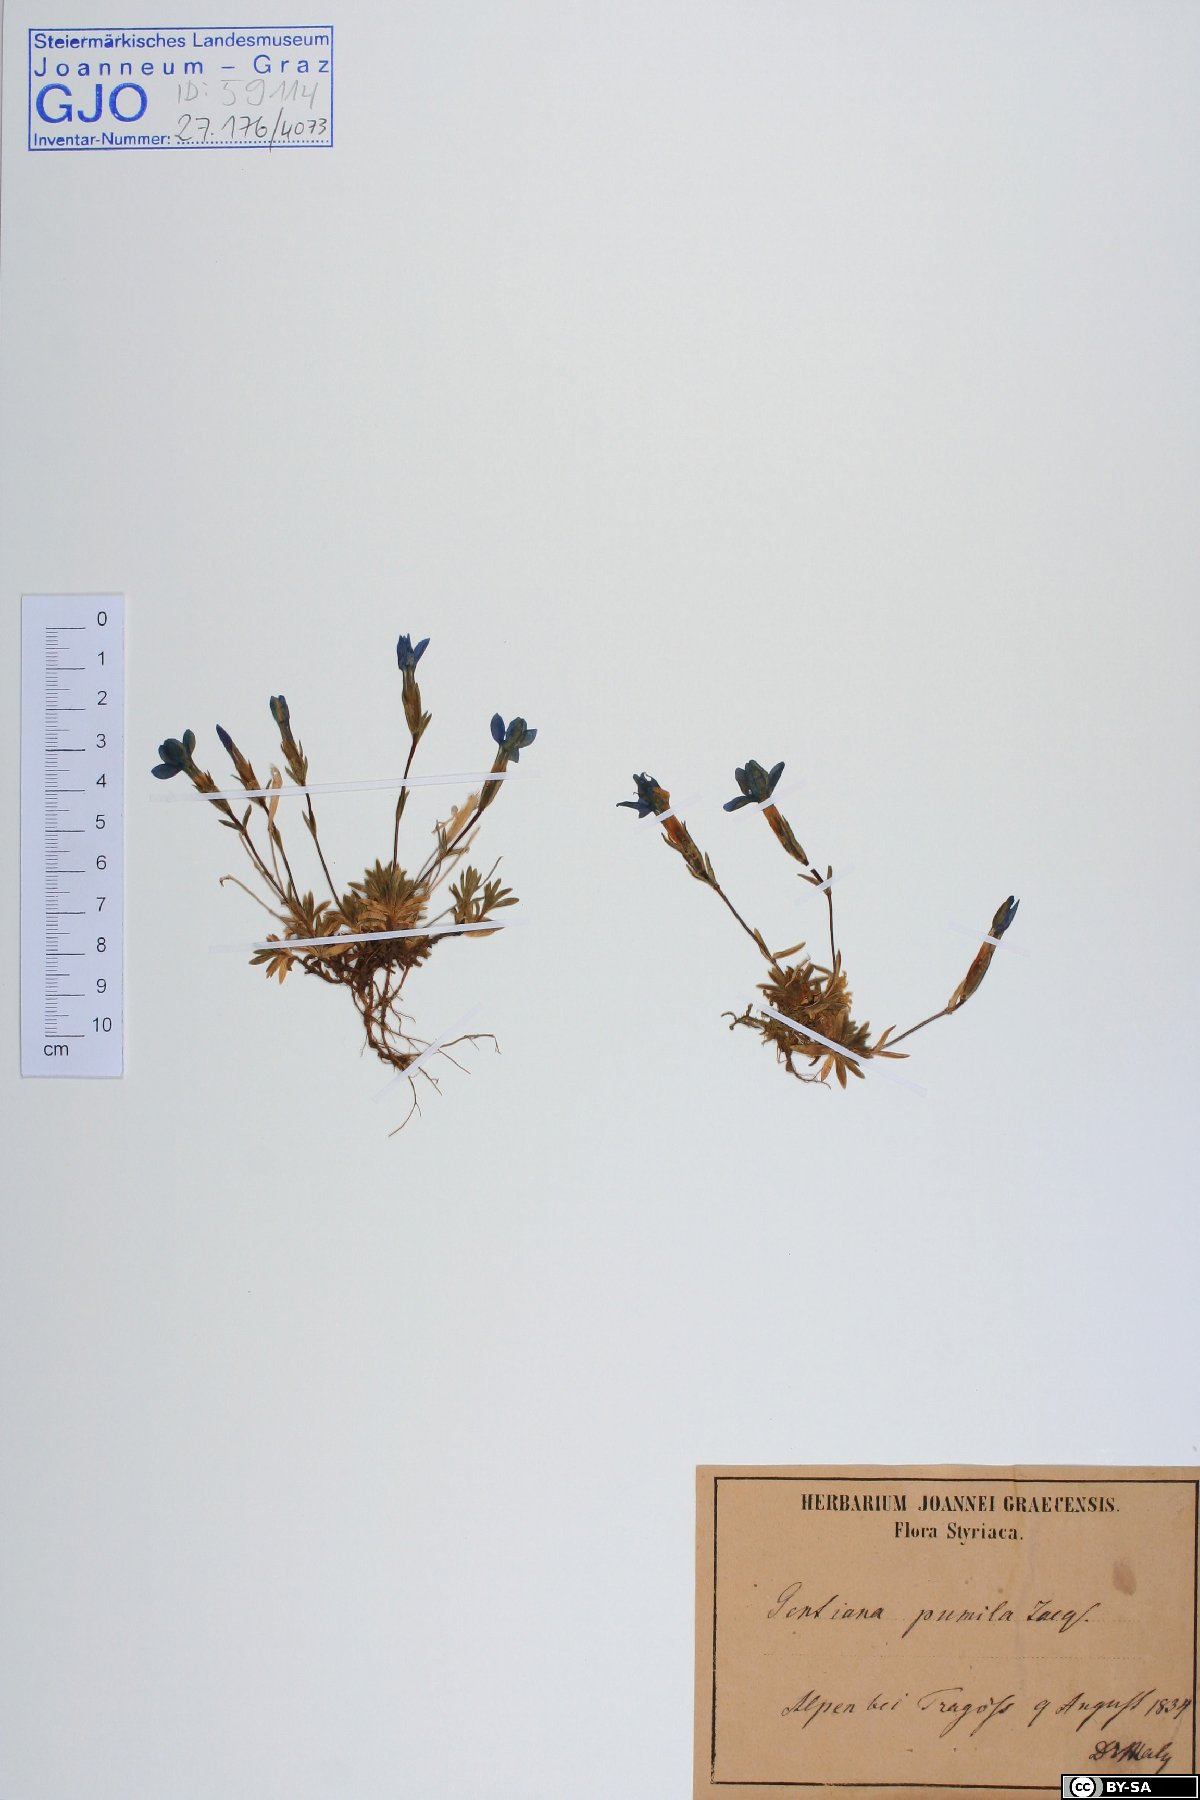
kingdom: Plantae
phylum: Tracheophyta
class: Magnoliopsida
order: Gentianales
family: Gentianaceae
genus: Gentiana
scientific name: Gentiana pumila
